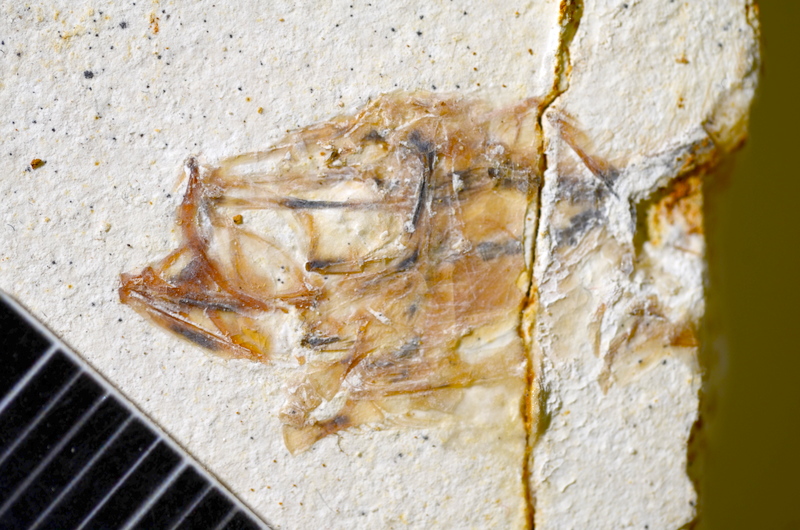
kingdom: Animalia
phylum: Chordata
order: Salmoniformes
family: Orthogonikleithridae
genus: Orthogonikleithrus
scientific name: Orthogonikleithrus hoelli
